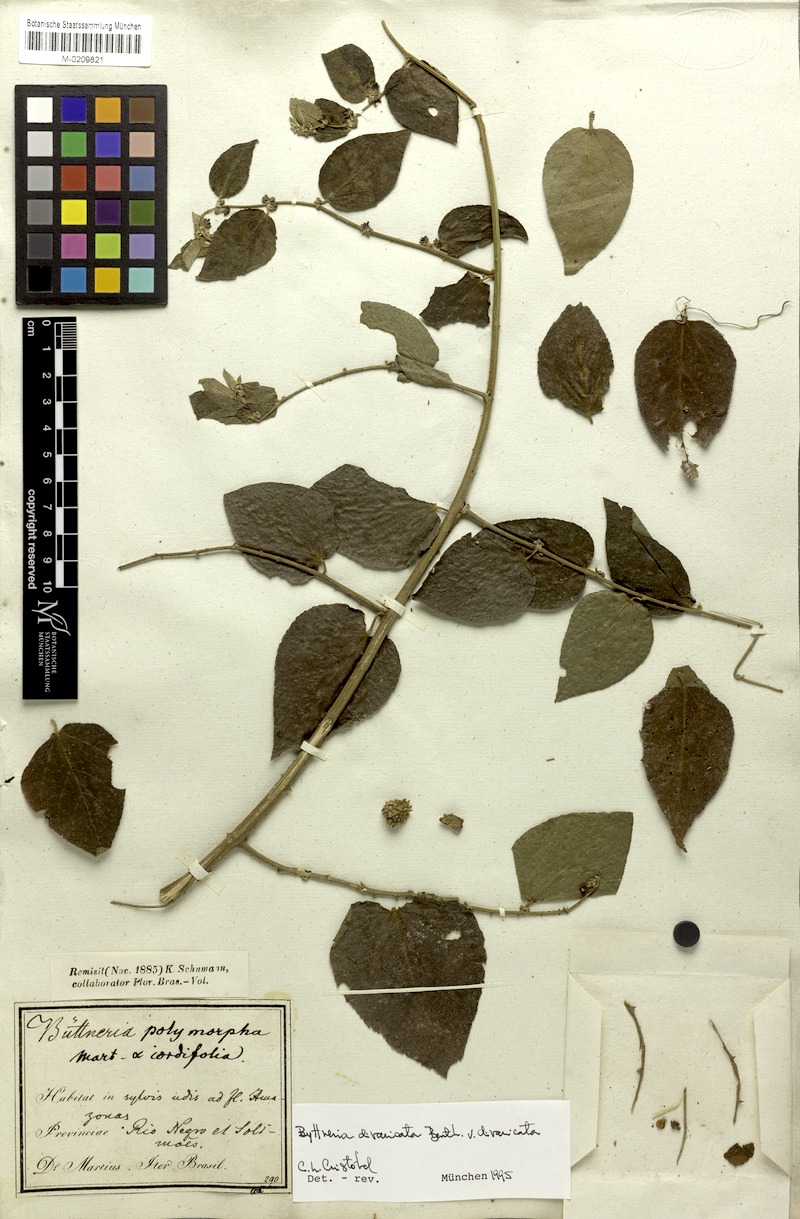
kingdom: Plantae
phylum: Tracheophyta
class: Magnoliopsida
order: Malvales
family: Malvaceae
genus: Byttneria
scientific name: Byttneria divaricata
